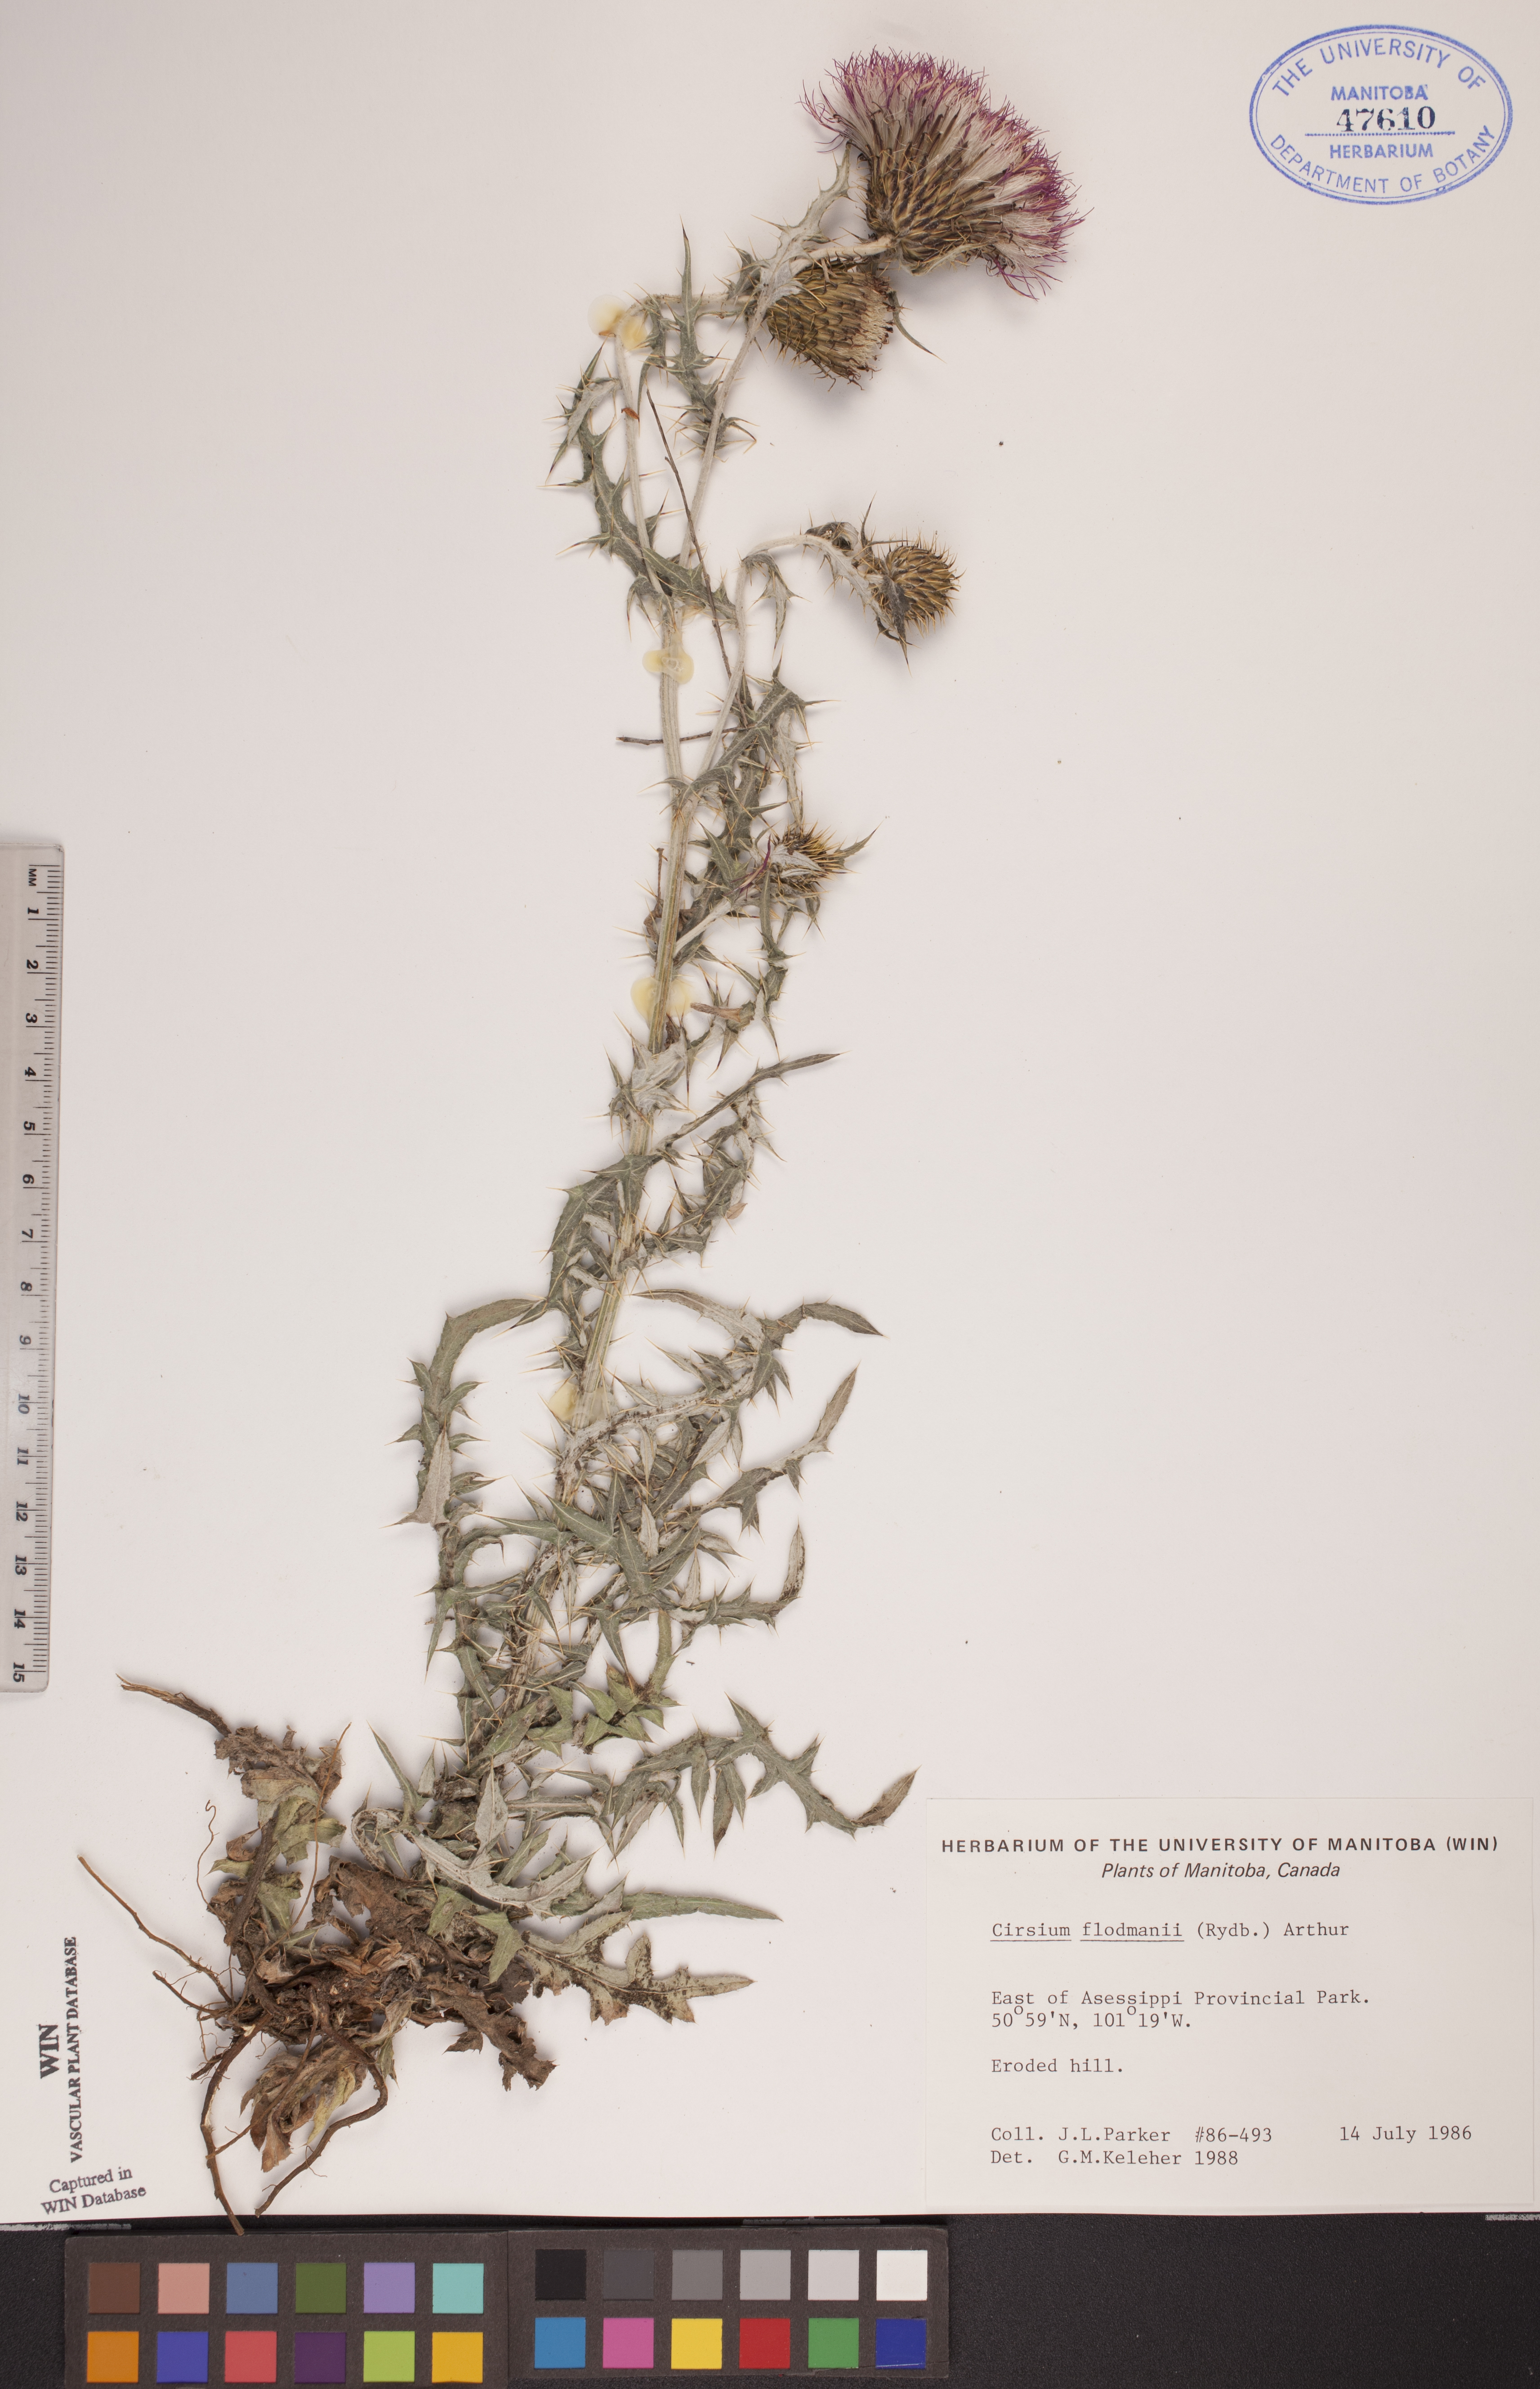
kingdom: Plantae
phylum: Tracheophyta
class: Magnoliopsida
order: Asterales
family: Asteraceae
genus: Cirsium
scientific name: Cirsium flodmanii
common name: Flodman's thistle
